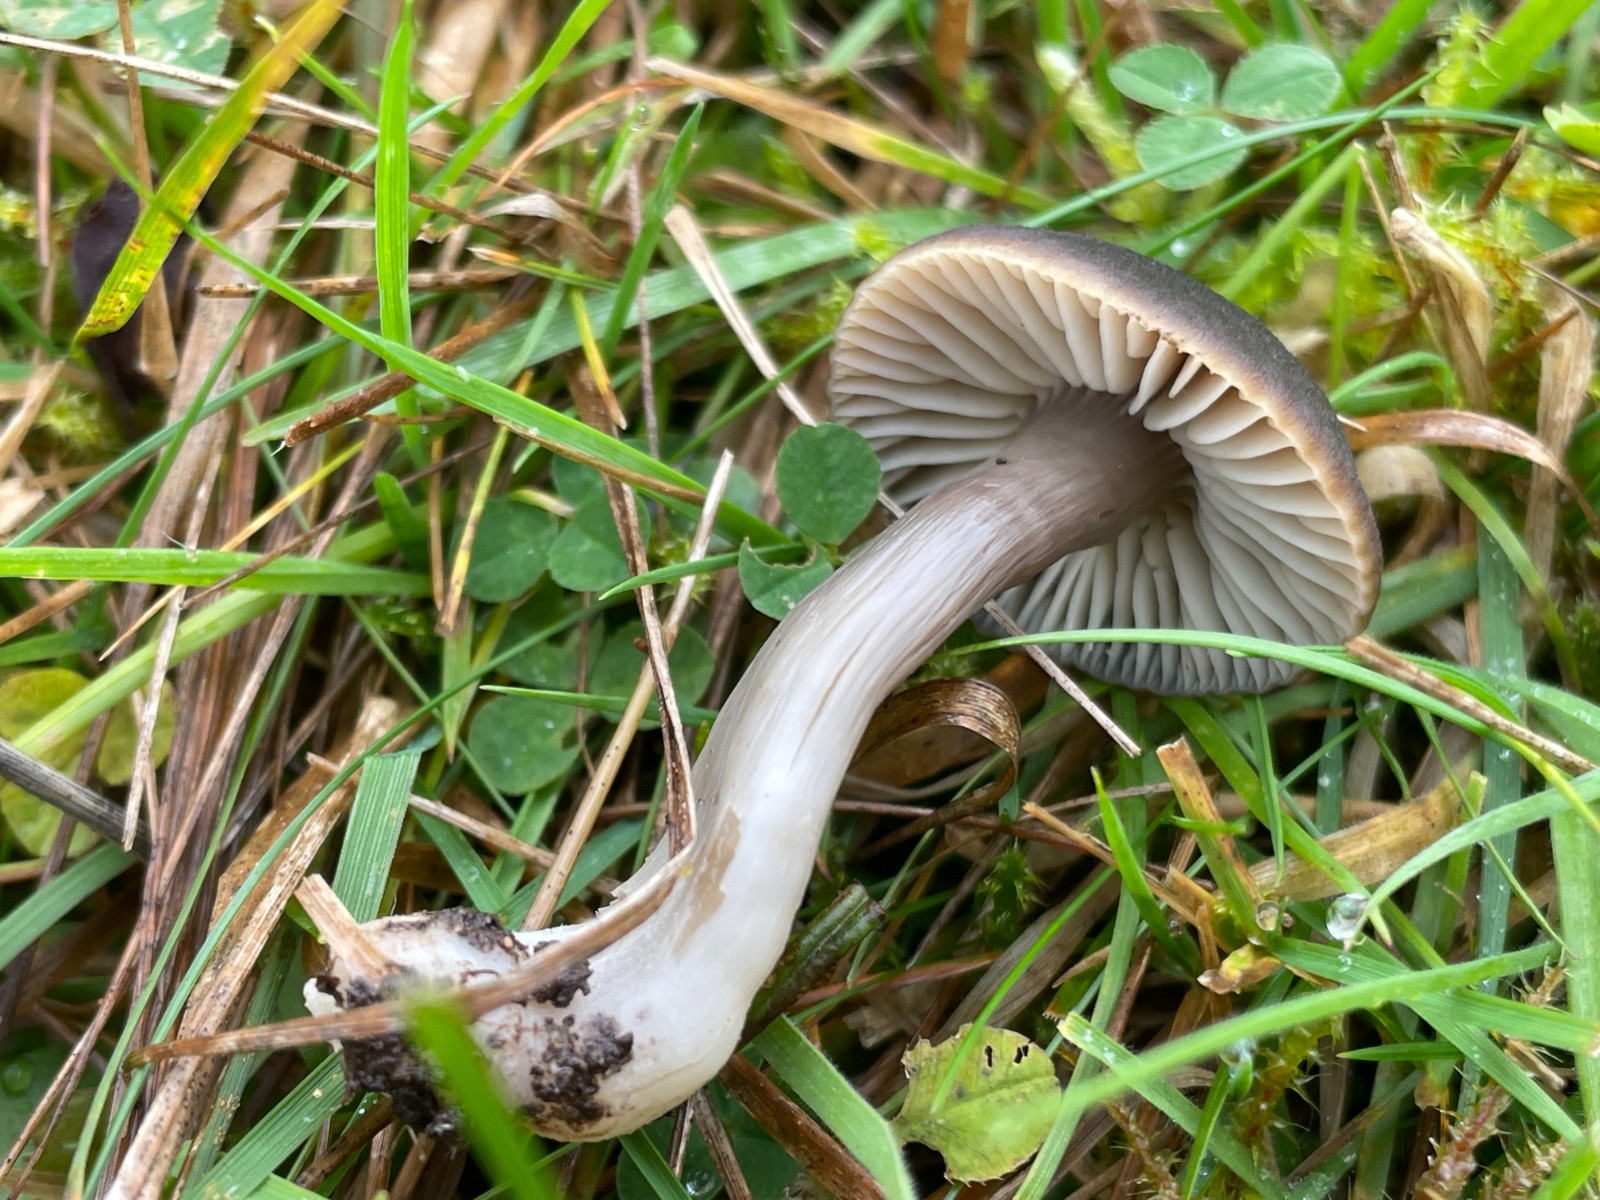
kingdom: Fungi
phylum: Basidiomycota
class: Agaricomycetes
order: Agaricales
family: Hygrophoraceae
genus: Neohygrocybe
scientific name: Neohygrocybe nitrata
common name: stinkende vokshat
